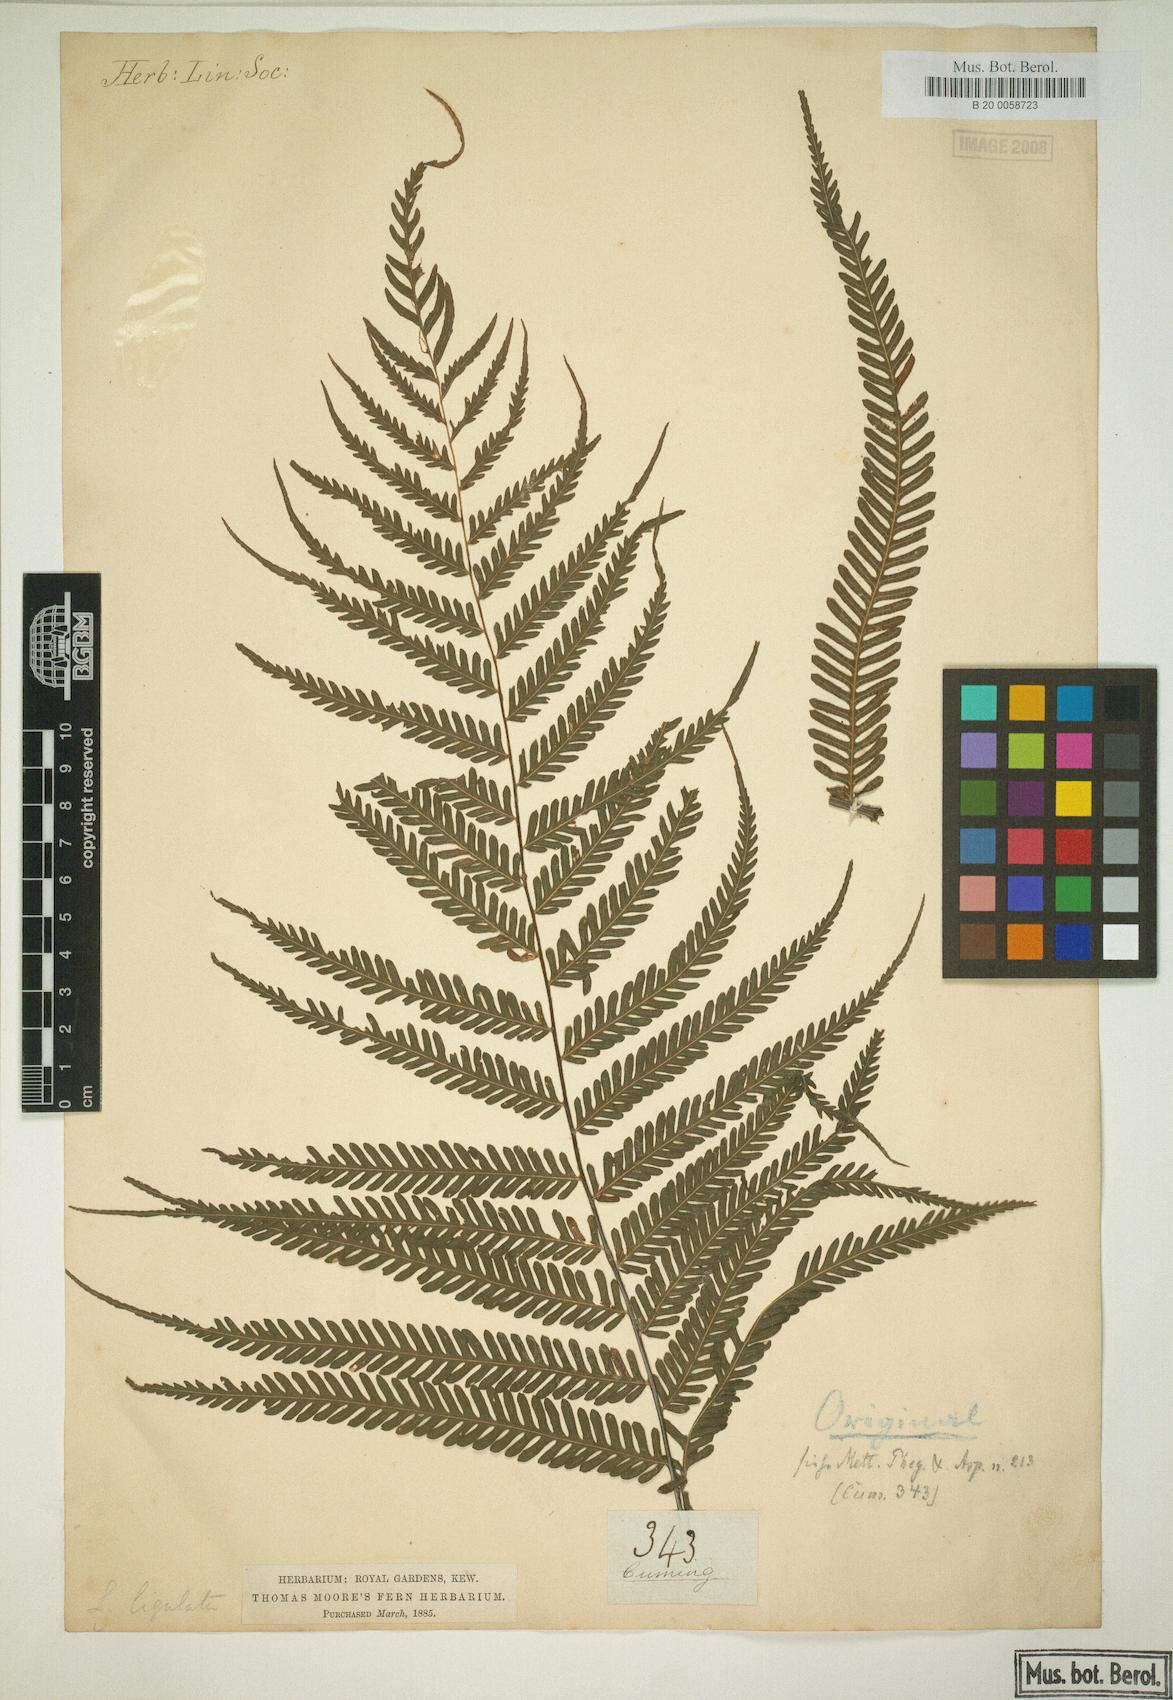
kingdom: Plantae
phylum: Tracheophyta
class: Polypodiopsida
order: Polypodiales
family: Thelypteridaceae
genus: Plesioneuron
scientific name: Plesioneuron ligulatum
